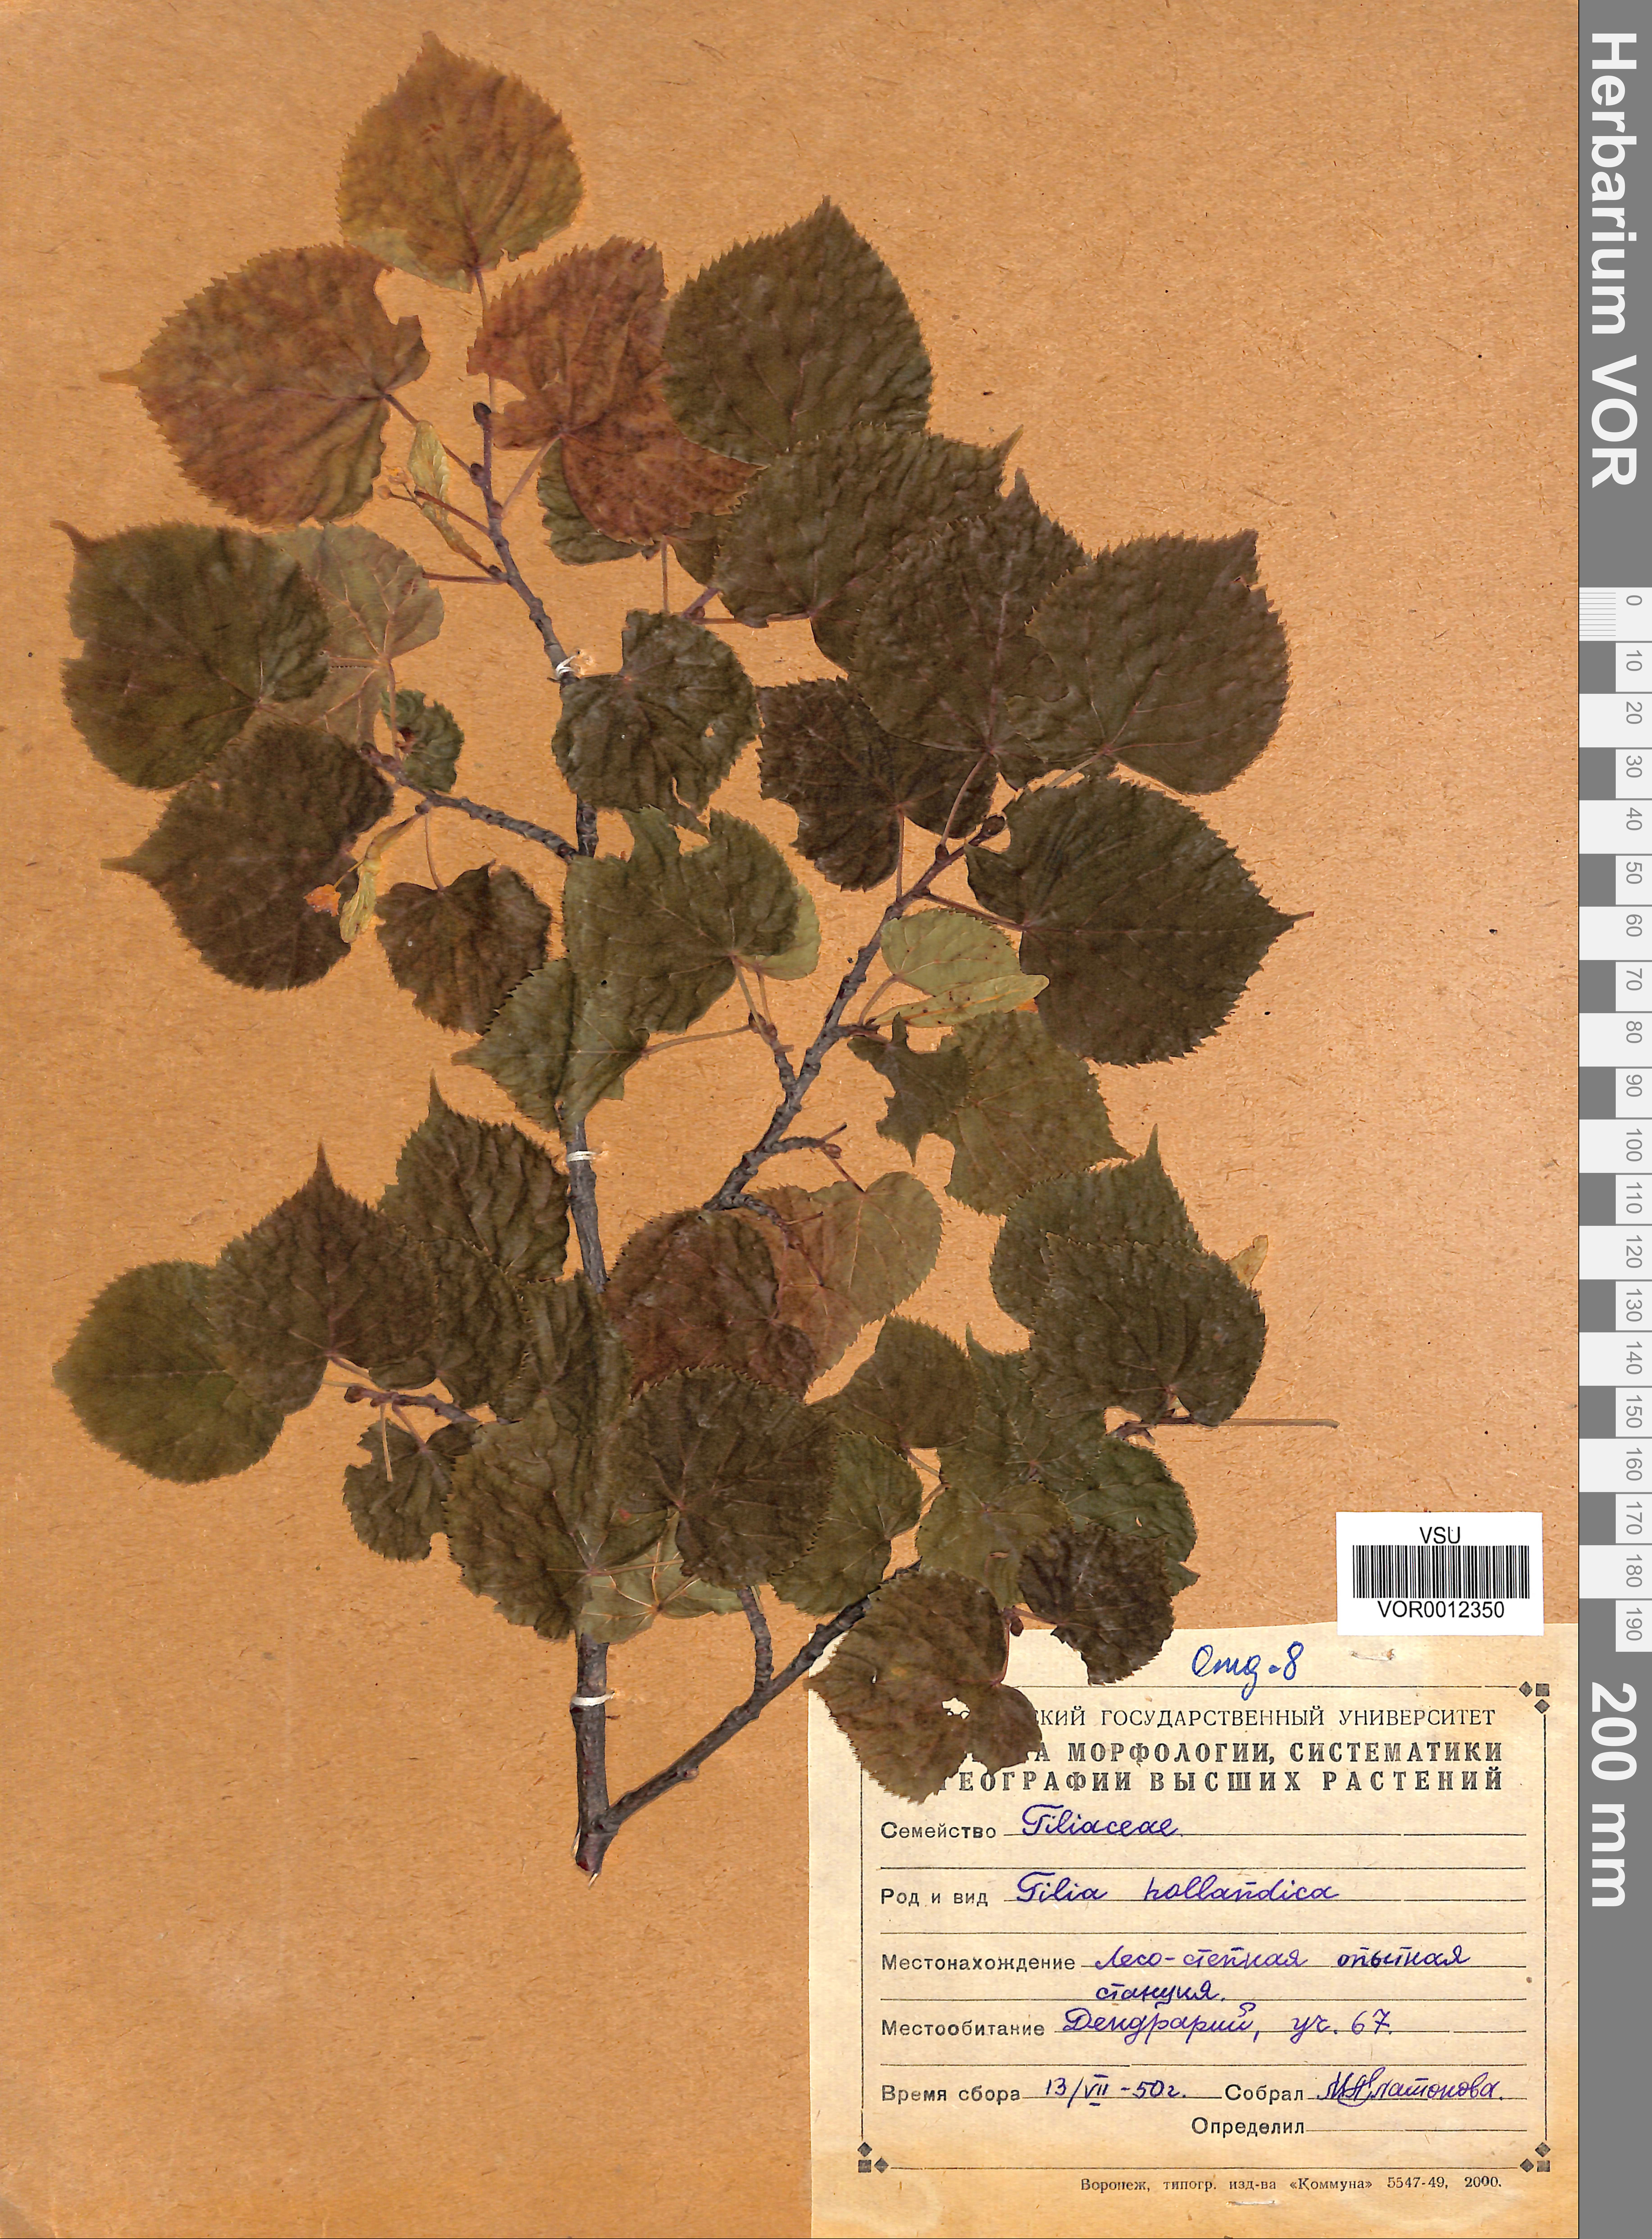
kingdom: Plantae
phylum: Tracheophyta
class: Magnoliopsida
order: Malvales
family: Malvaceae
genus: Tilia
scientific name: Tilia
